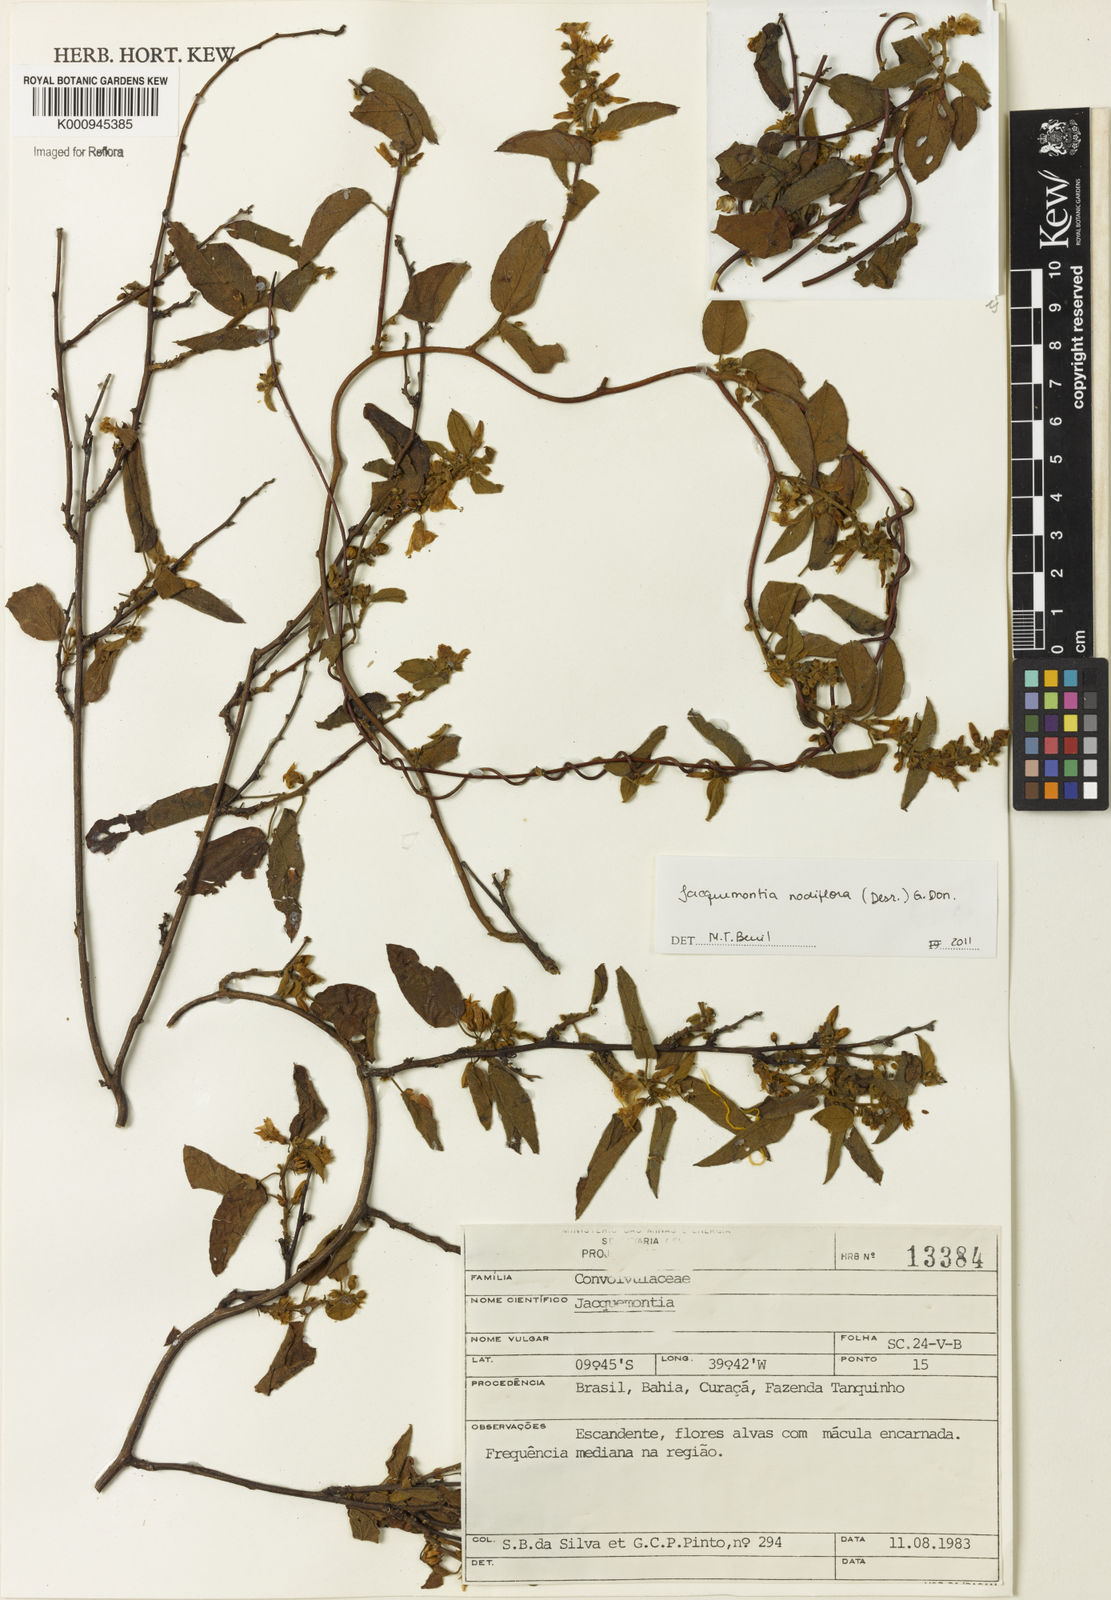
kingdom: Plantae
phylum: Tracheophyta
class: Magnoliopsida
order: Solanales
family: Convolvulaceae
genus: Jacquemontia
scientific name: Jacquemontia nodiflora
